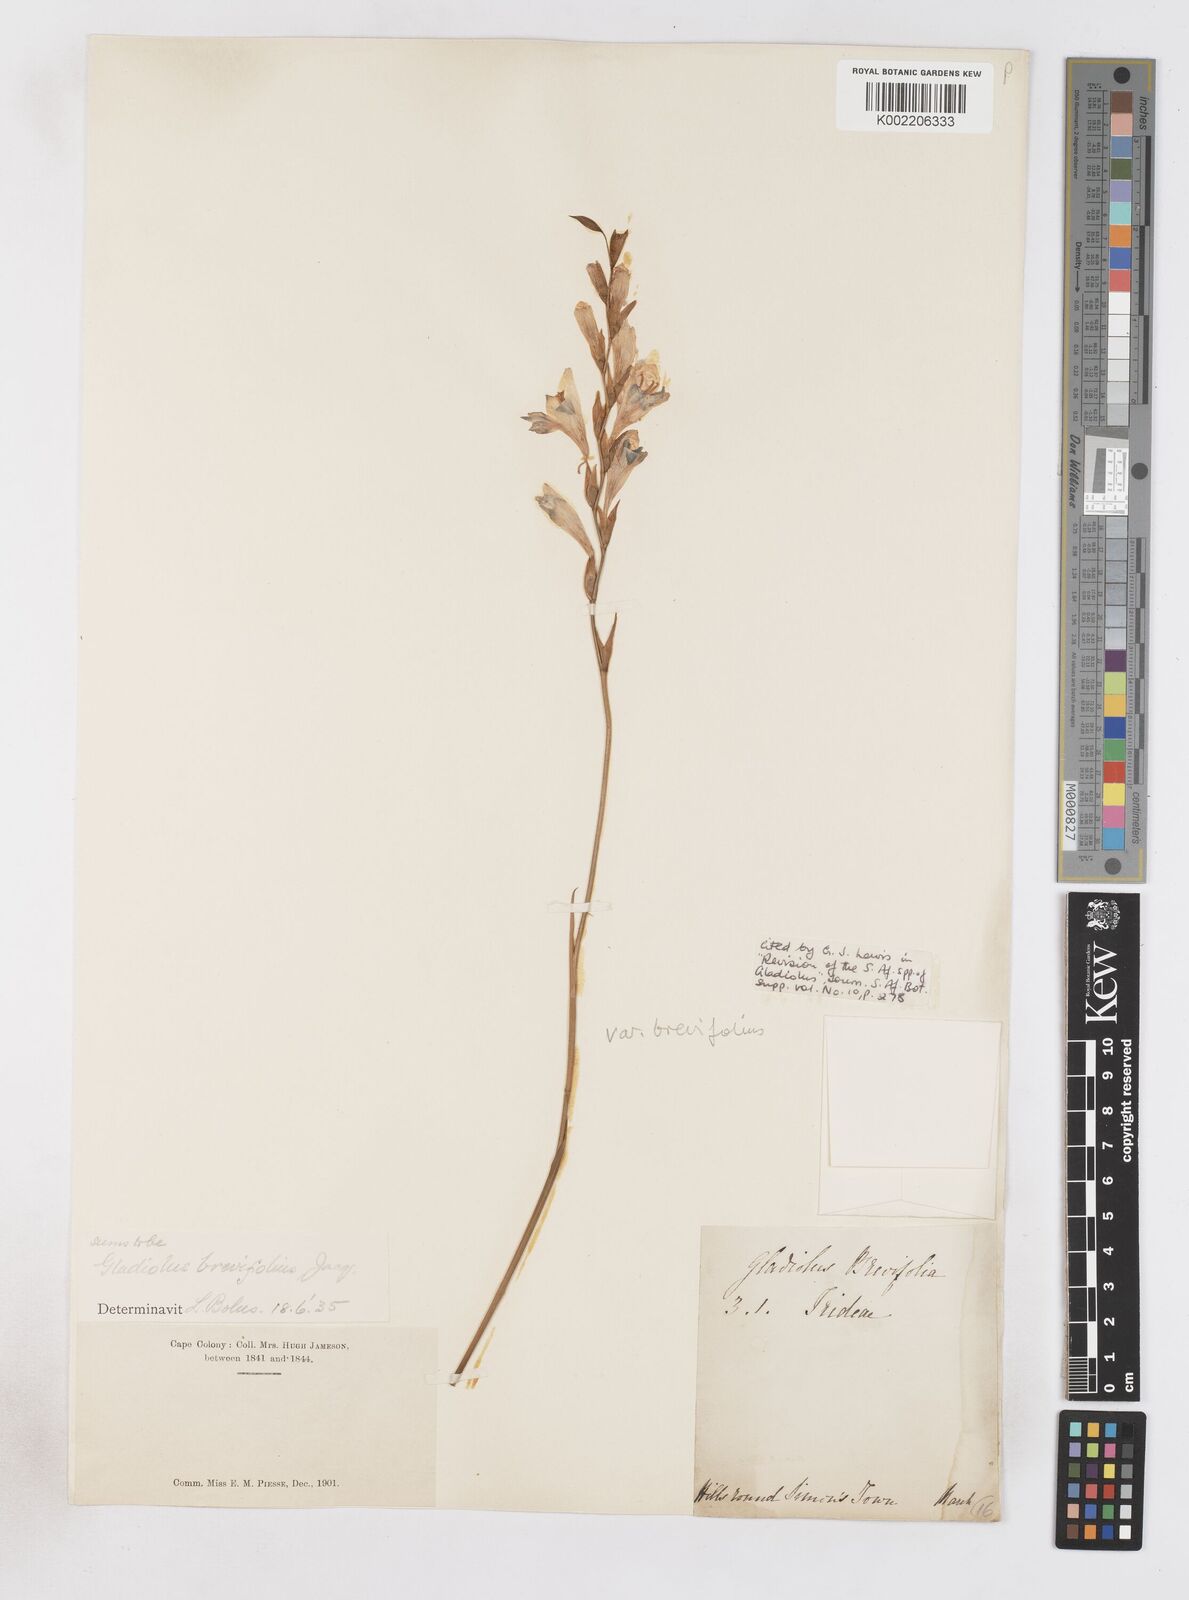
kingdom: Plantae
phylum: Tracheophyta
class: Liliopsida
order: Asparagales
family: Iridaceae
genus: Gladiolus
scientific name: Gladiolus brevifolius
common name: March pypie
